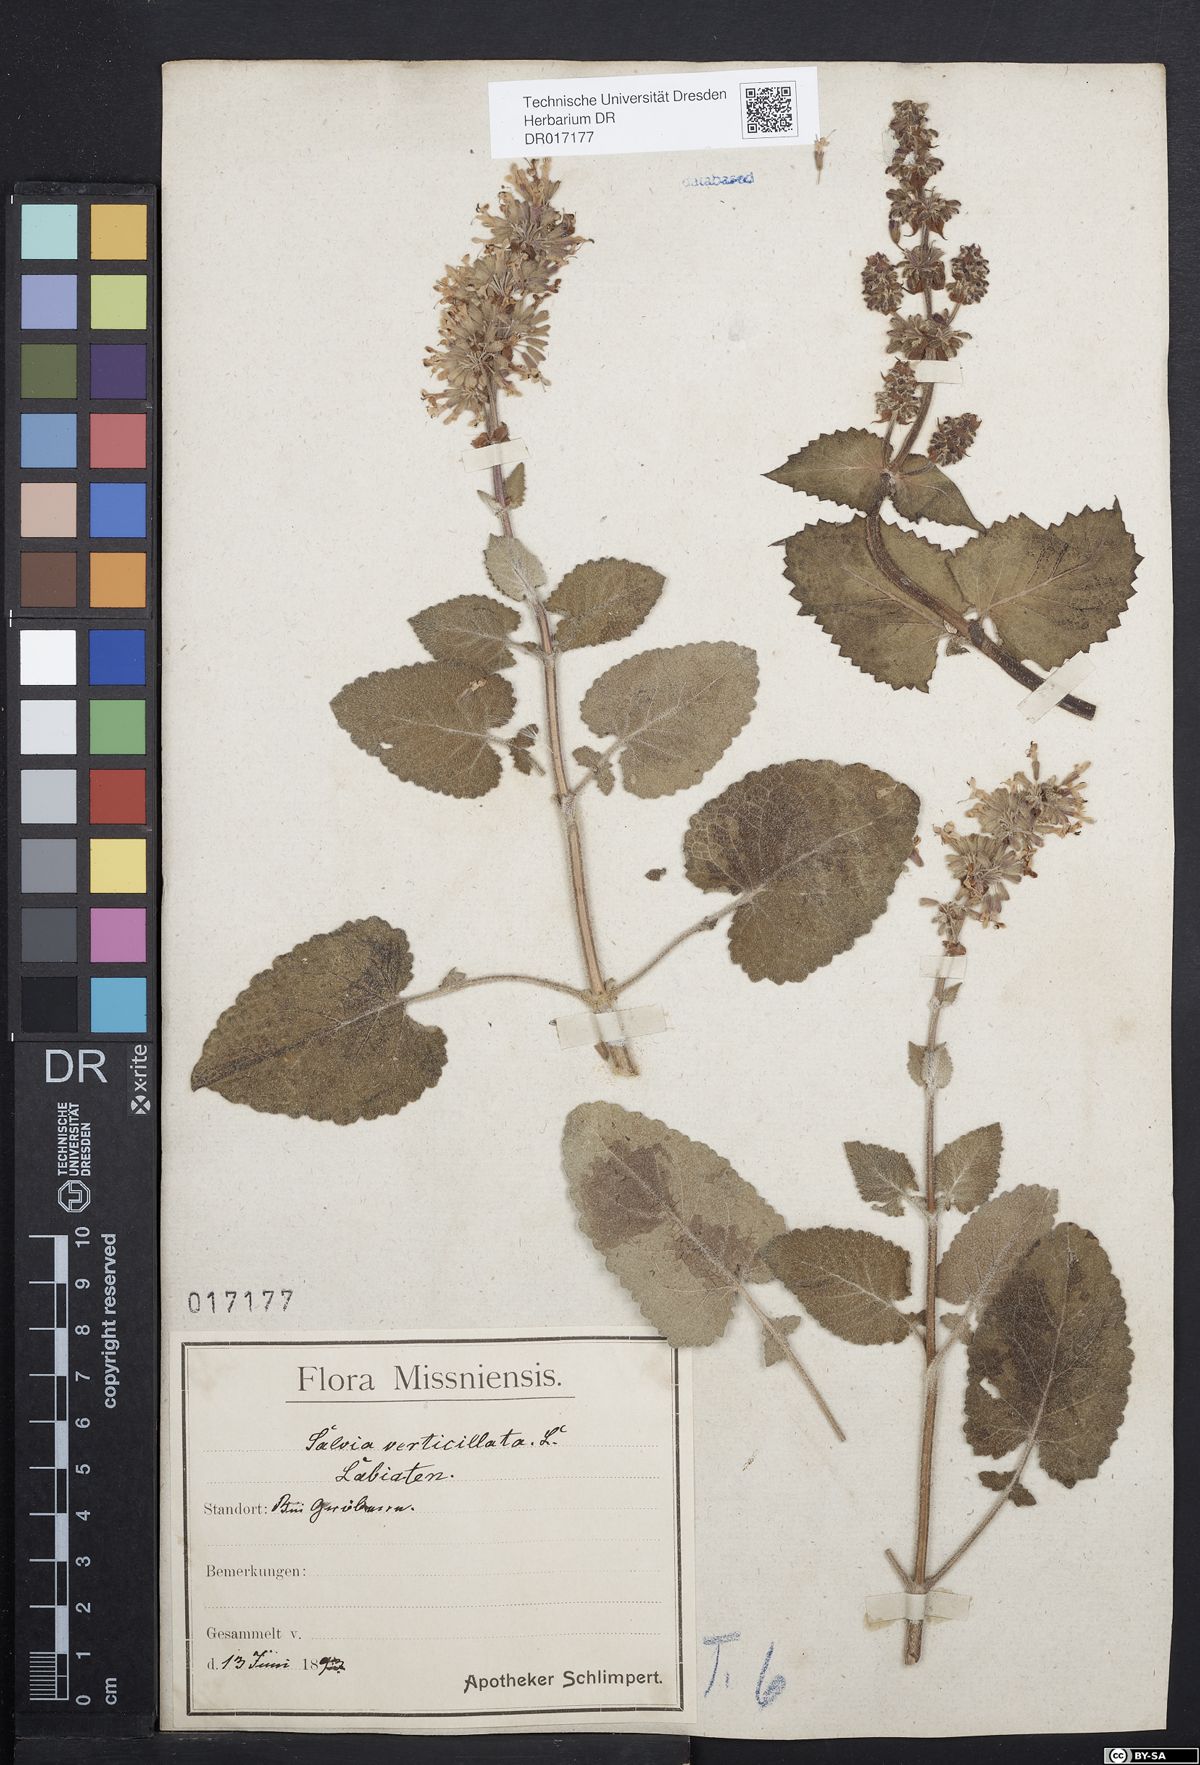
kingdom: Plantae
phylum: Tracheophyta
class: Magnoliopsida
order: Lamiales
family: Lamiaceae
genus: Salvia
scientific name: Salvia verticillata
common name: Whorled clary
